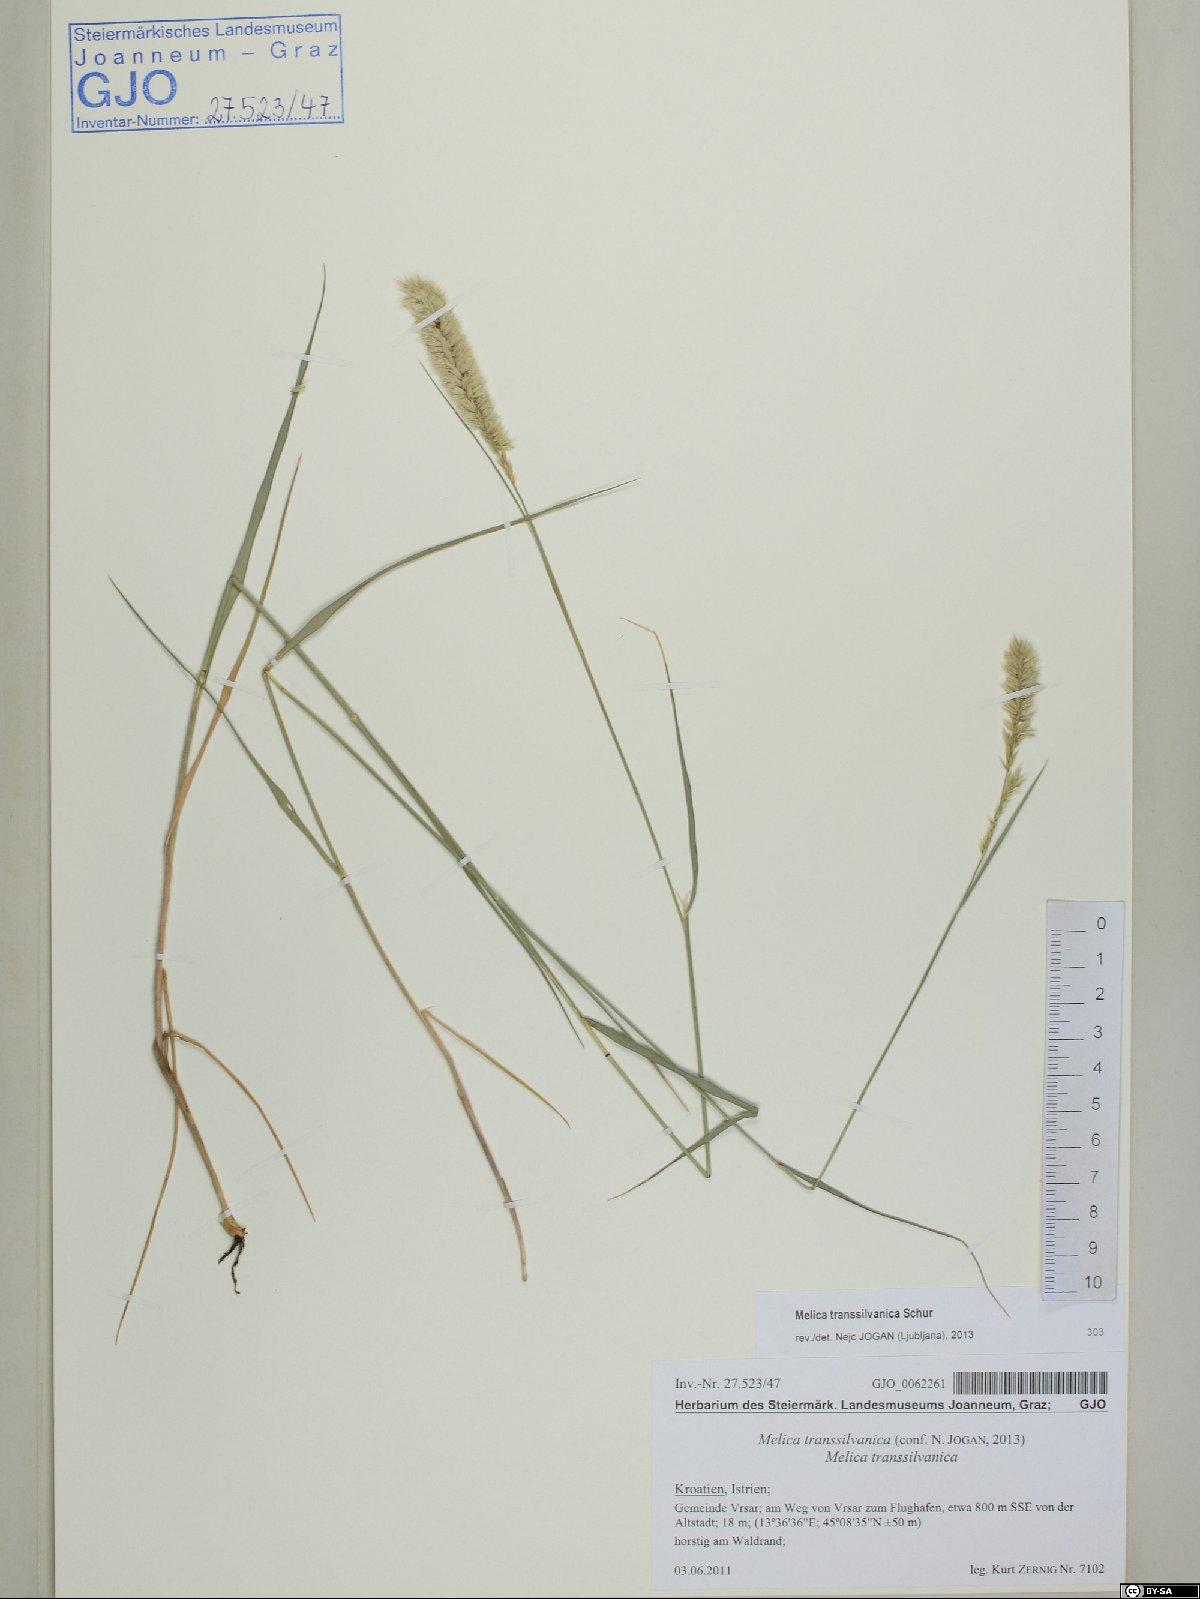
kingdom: Plantae
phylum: Tracheophyta
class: Liliopsida
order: Poales
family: Poaceae
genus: Melica
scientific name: Melica transsilvanica
